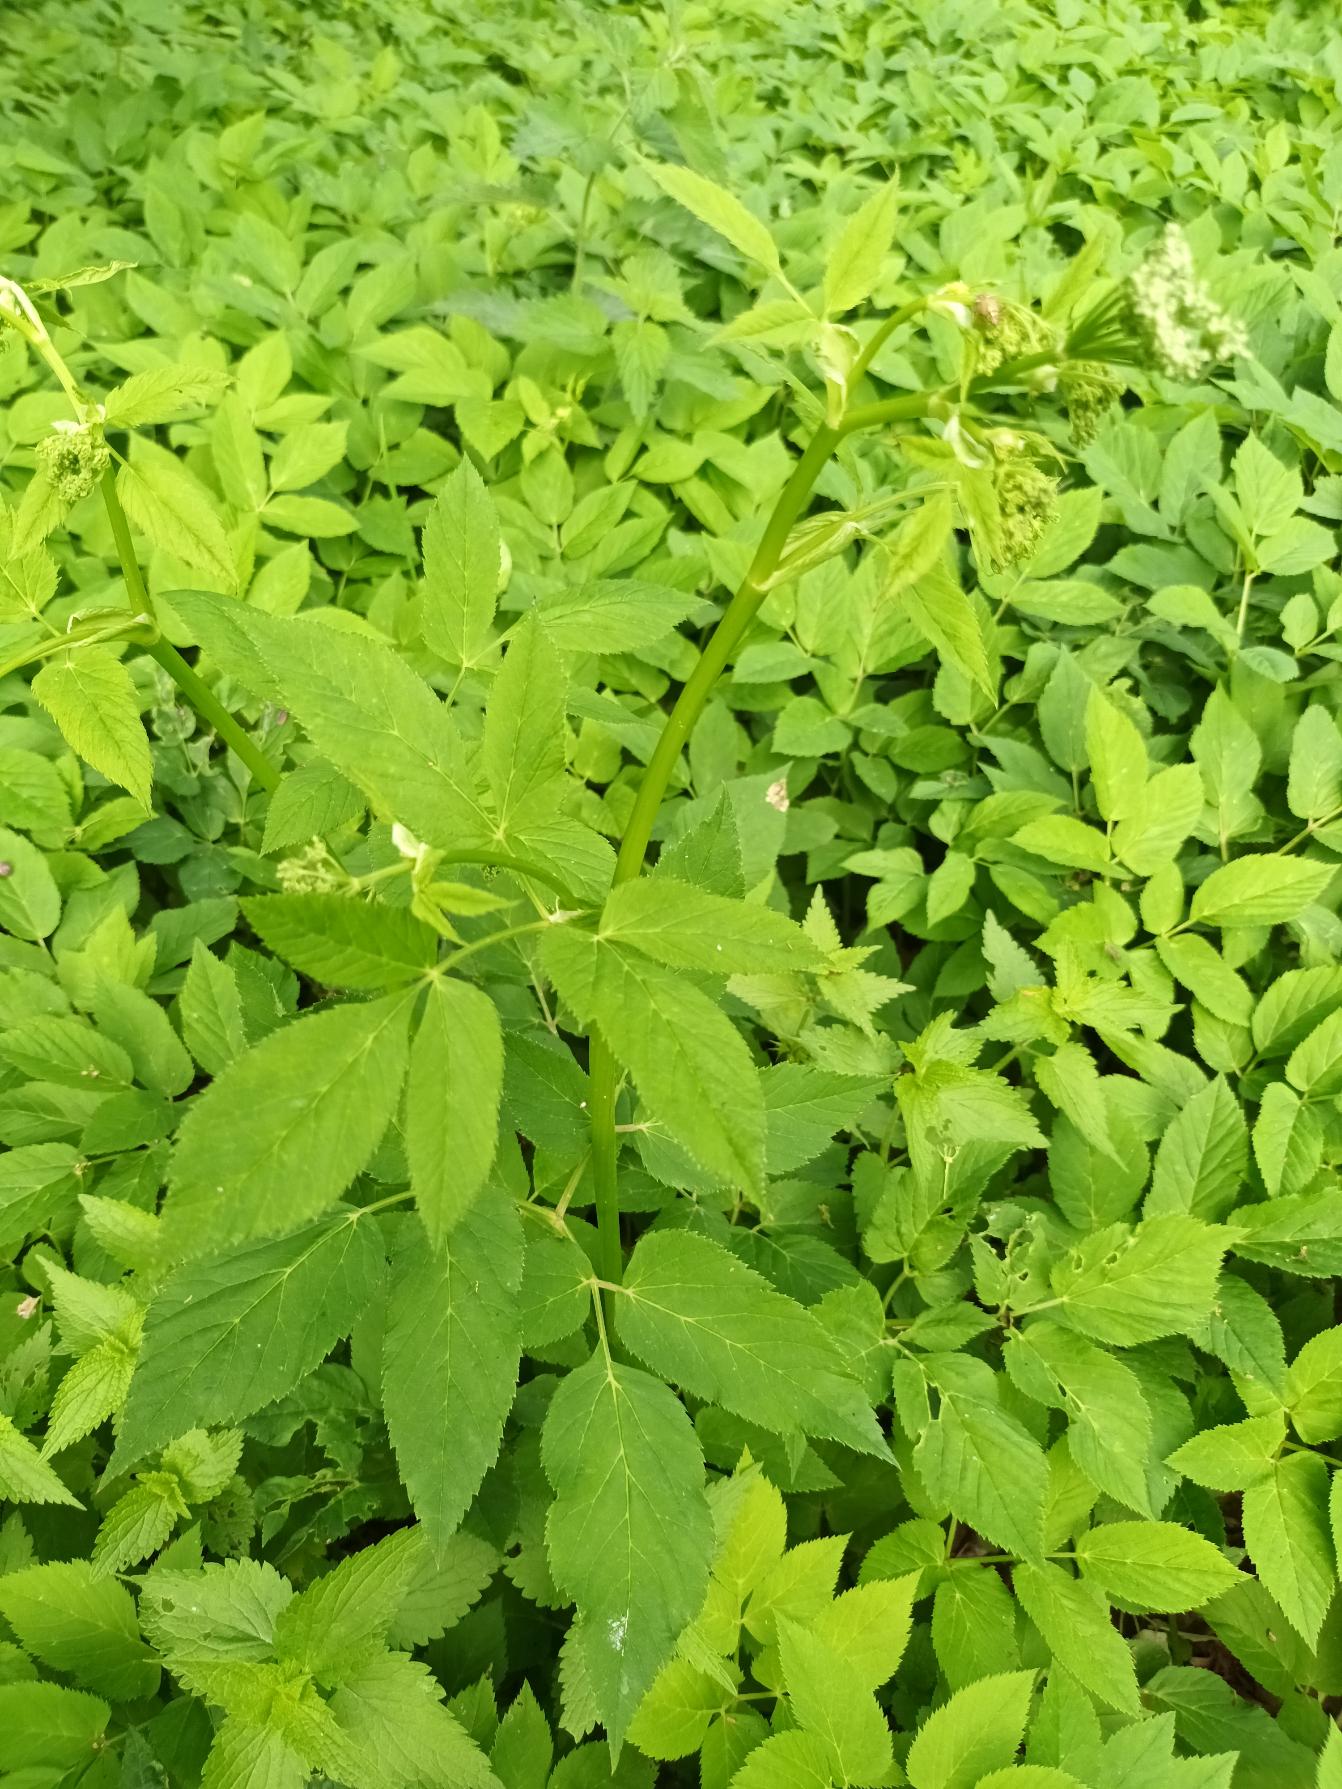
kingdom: Plantae
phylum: Tracheophyta
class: Magnoliopsida
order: Apiales
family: Apiaceae
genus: Aegopodium
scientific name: Aegopodium podagraria
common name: Skvalderkål
